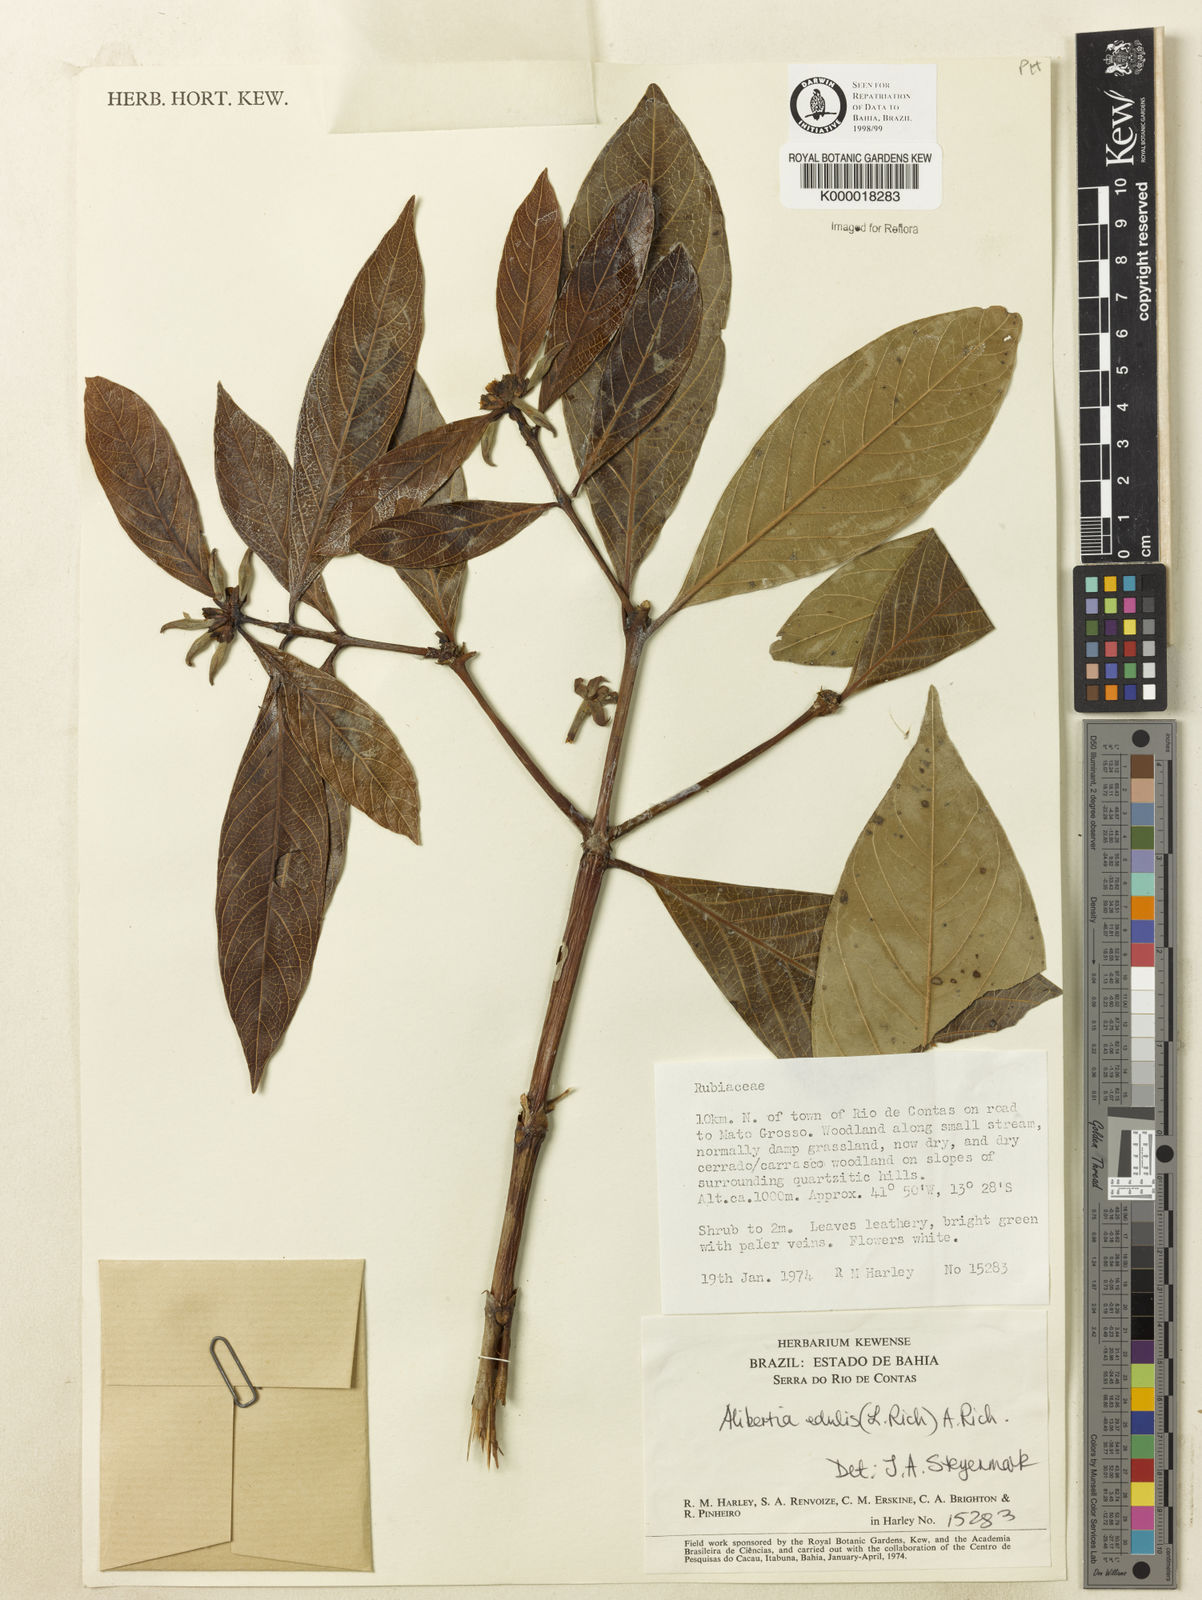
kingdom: Plantae
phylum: Tracheophyta
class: Magnoliopsida
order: Gentianales
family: Rubiaceae
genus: Alibertia
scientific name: Alibertia edulis
